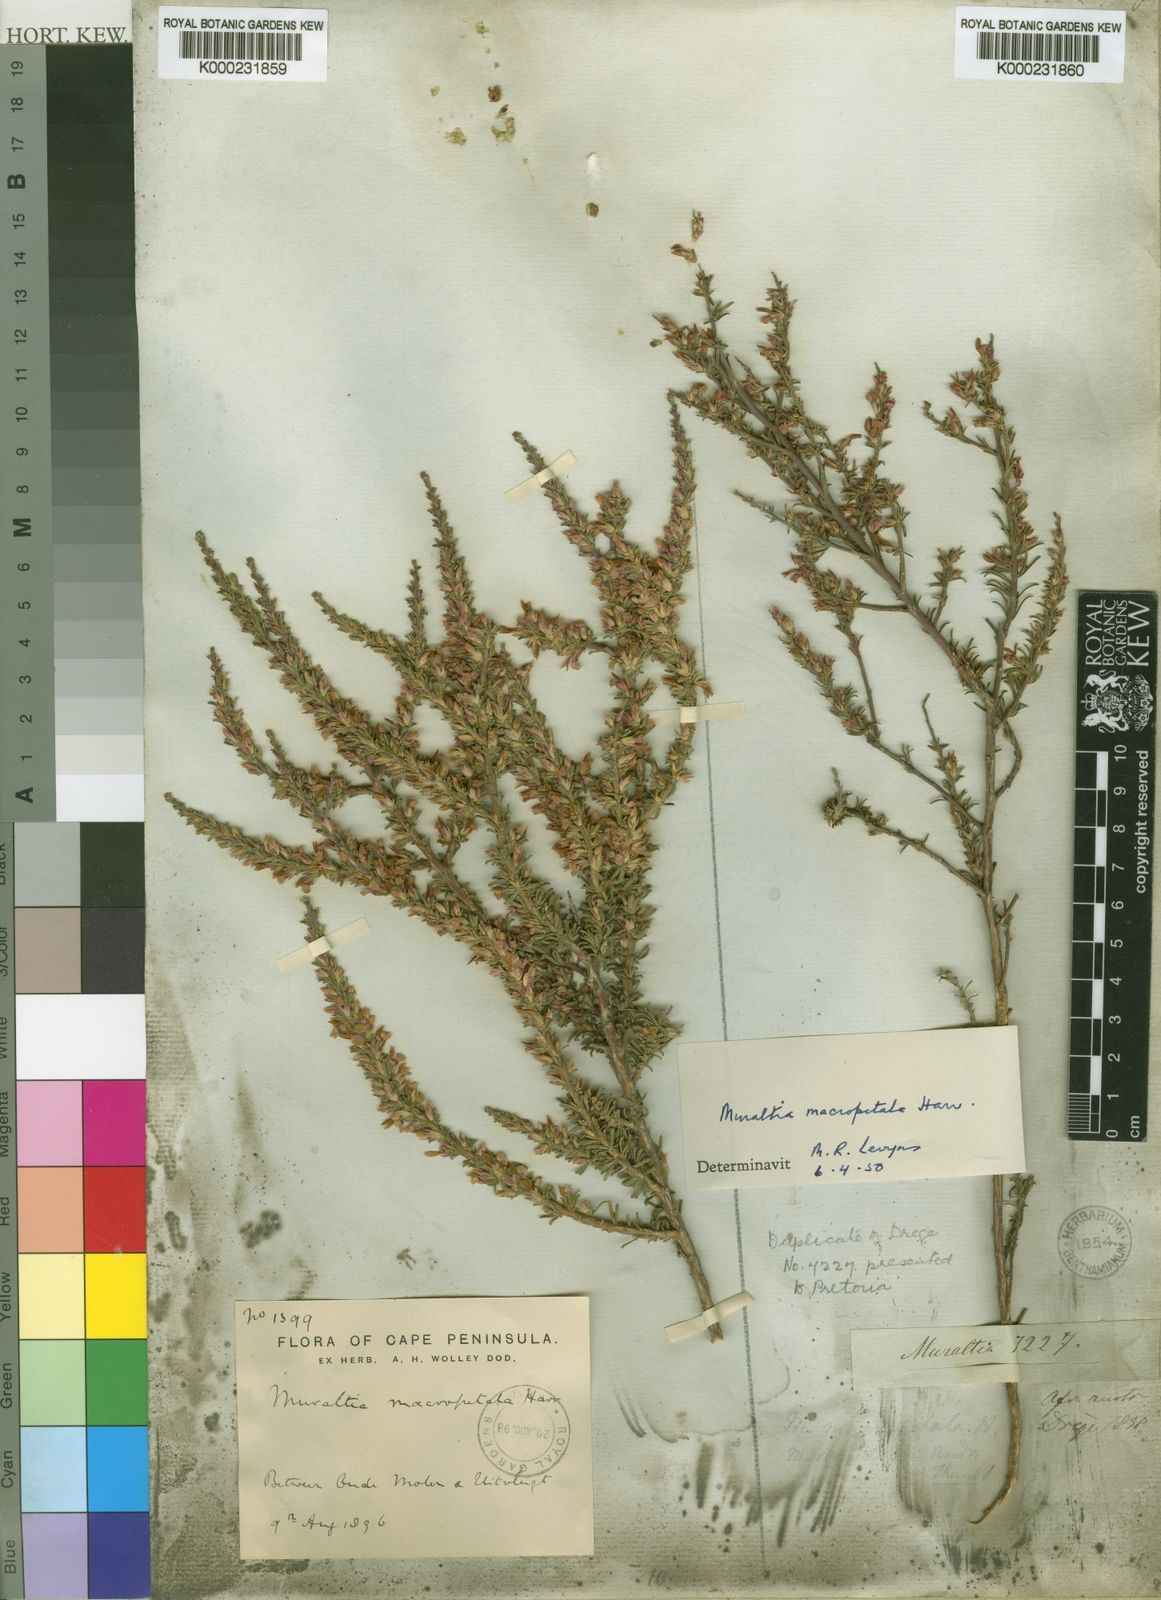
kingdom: Plantae
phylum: Tracheophyta
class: Magnoliopsida
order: Fabales
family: Polygalaceae
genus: Muraltia
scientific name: Muraltia macropetala
